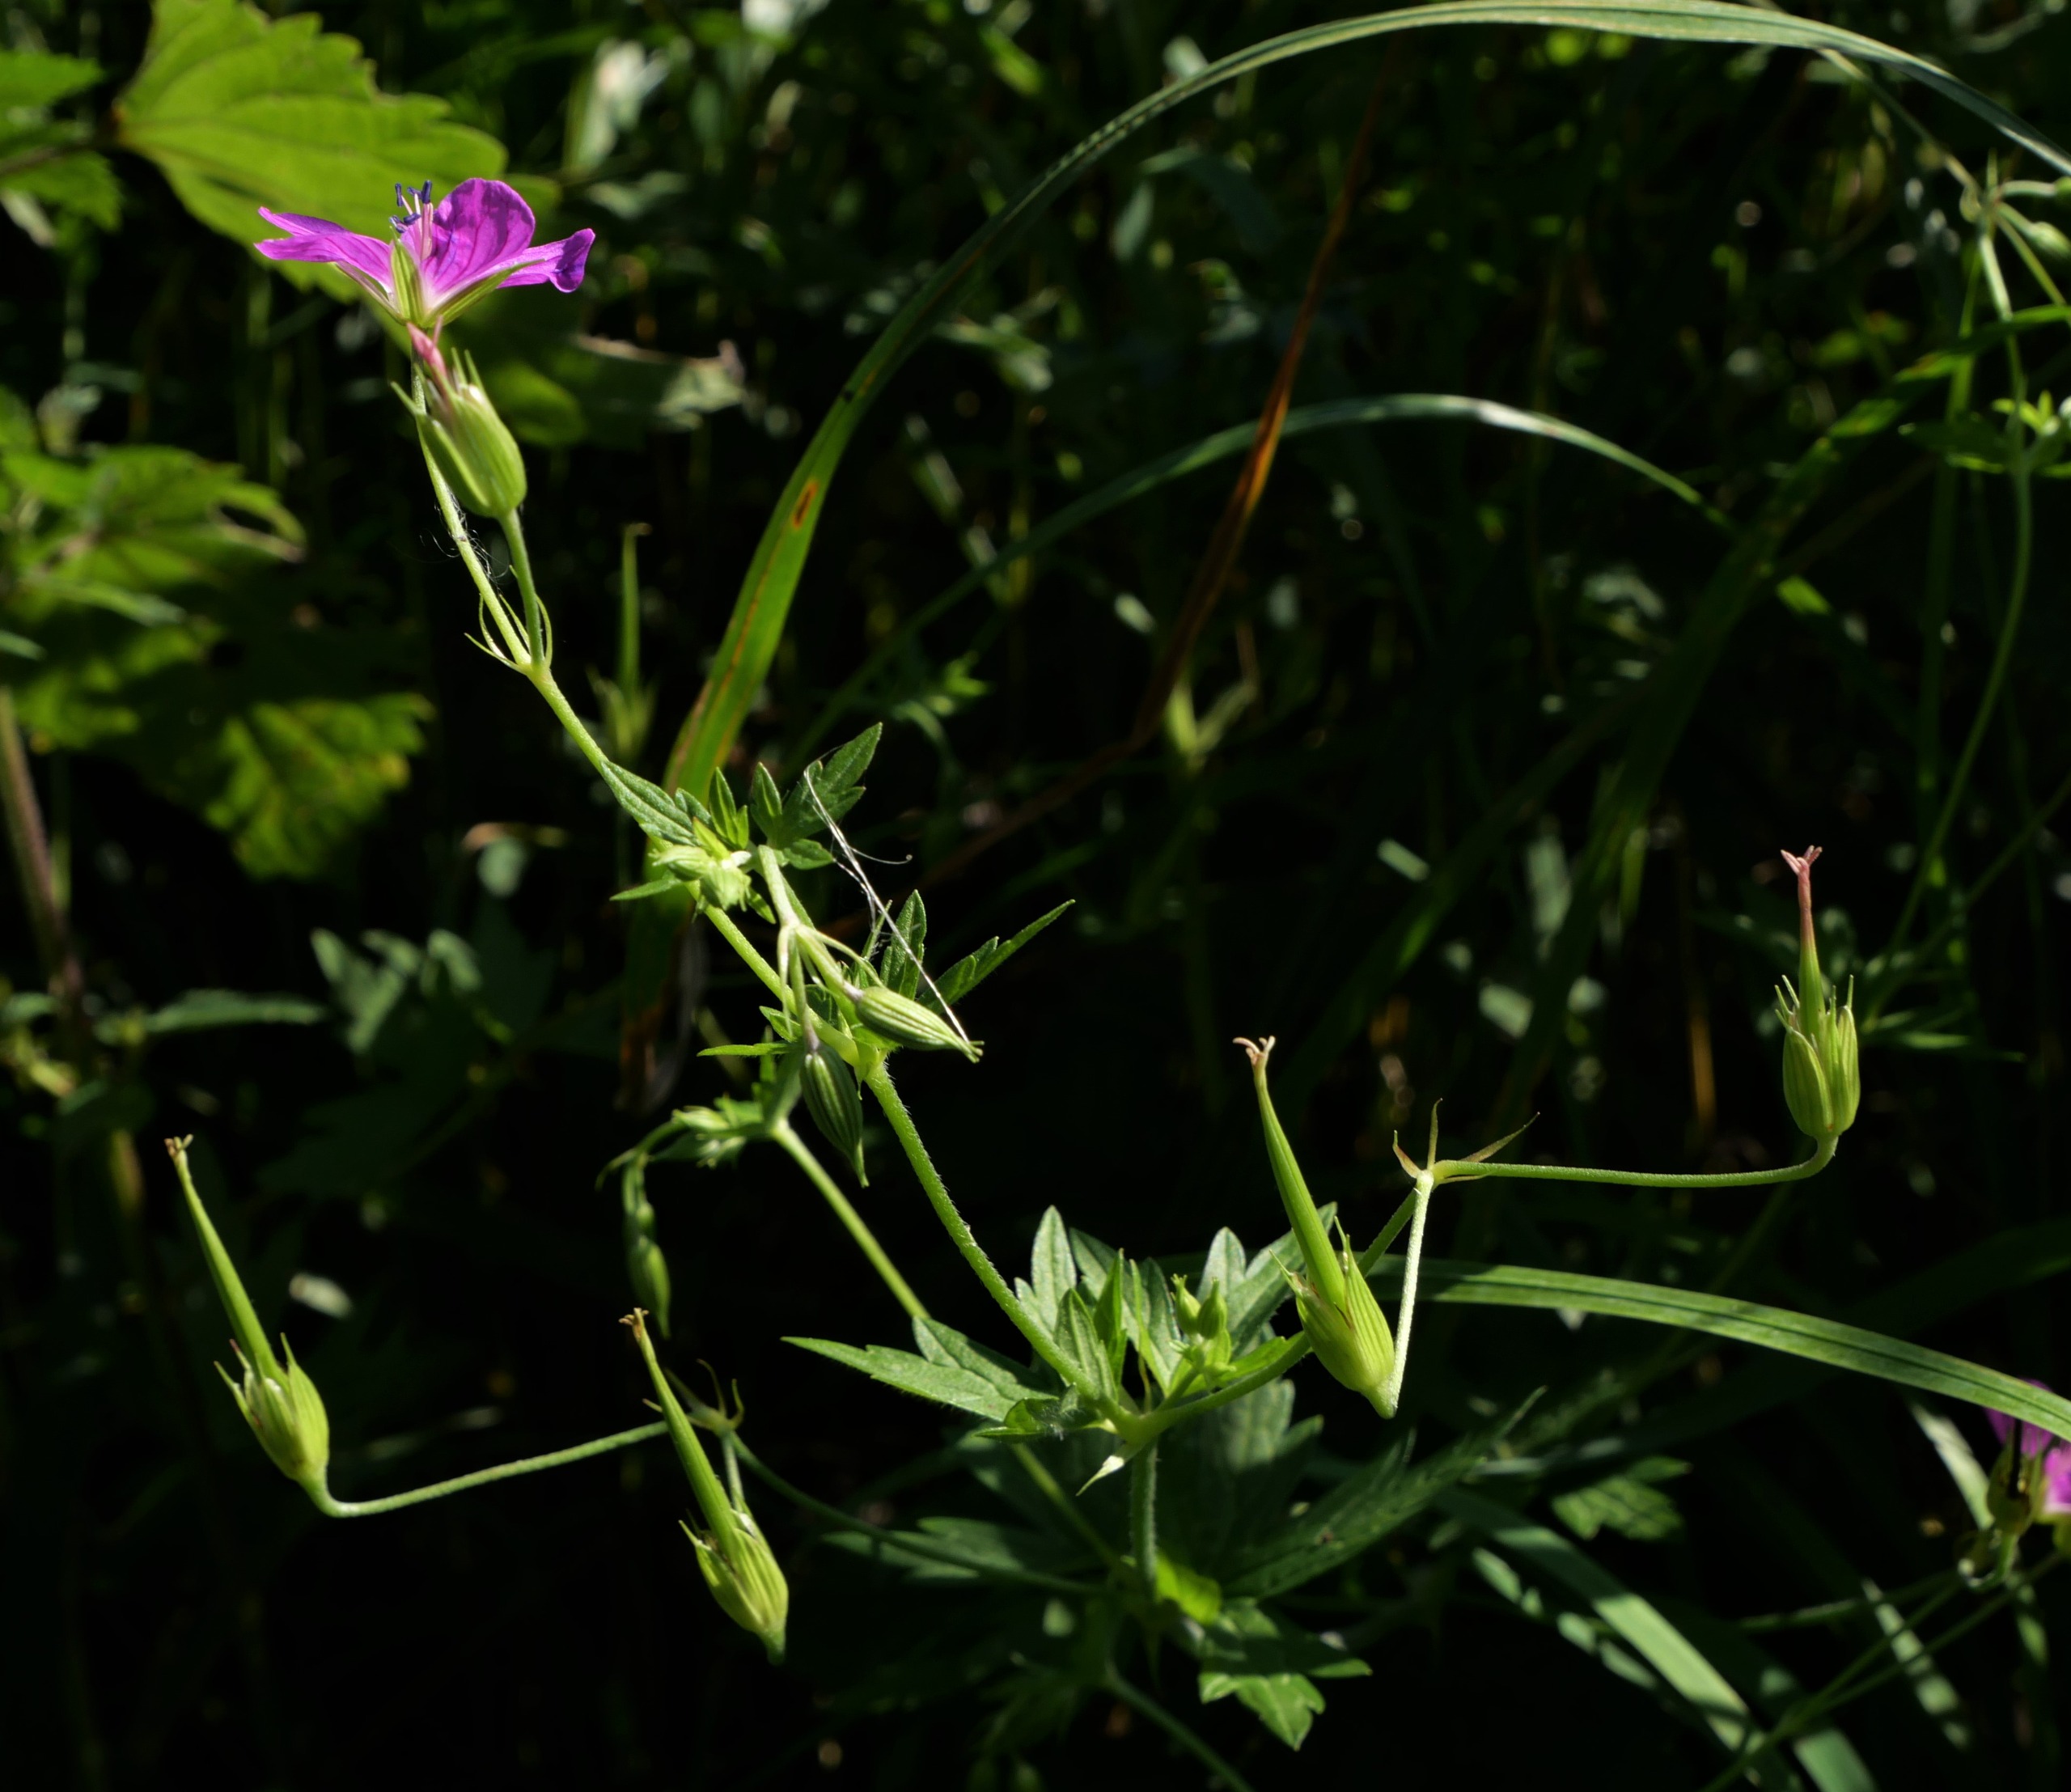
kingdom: Plantae
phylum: Tracheophyta
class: Magnoliopsida
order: Geraniales
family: Geraniaceae
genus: Geranium
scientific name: Geranium palustre
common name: Kær-storkenæb
